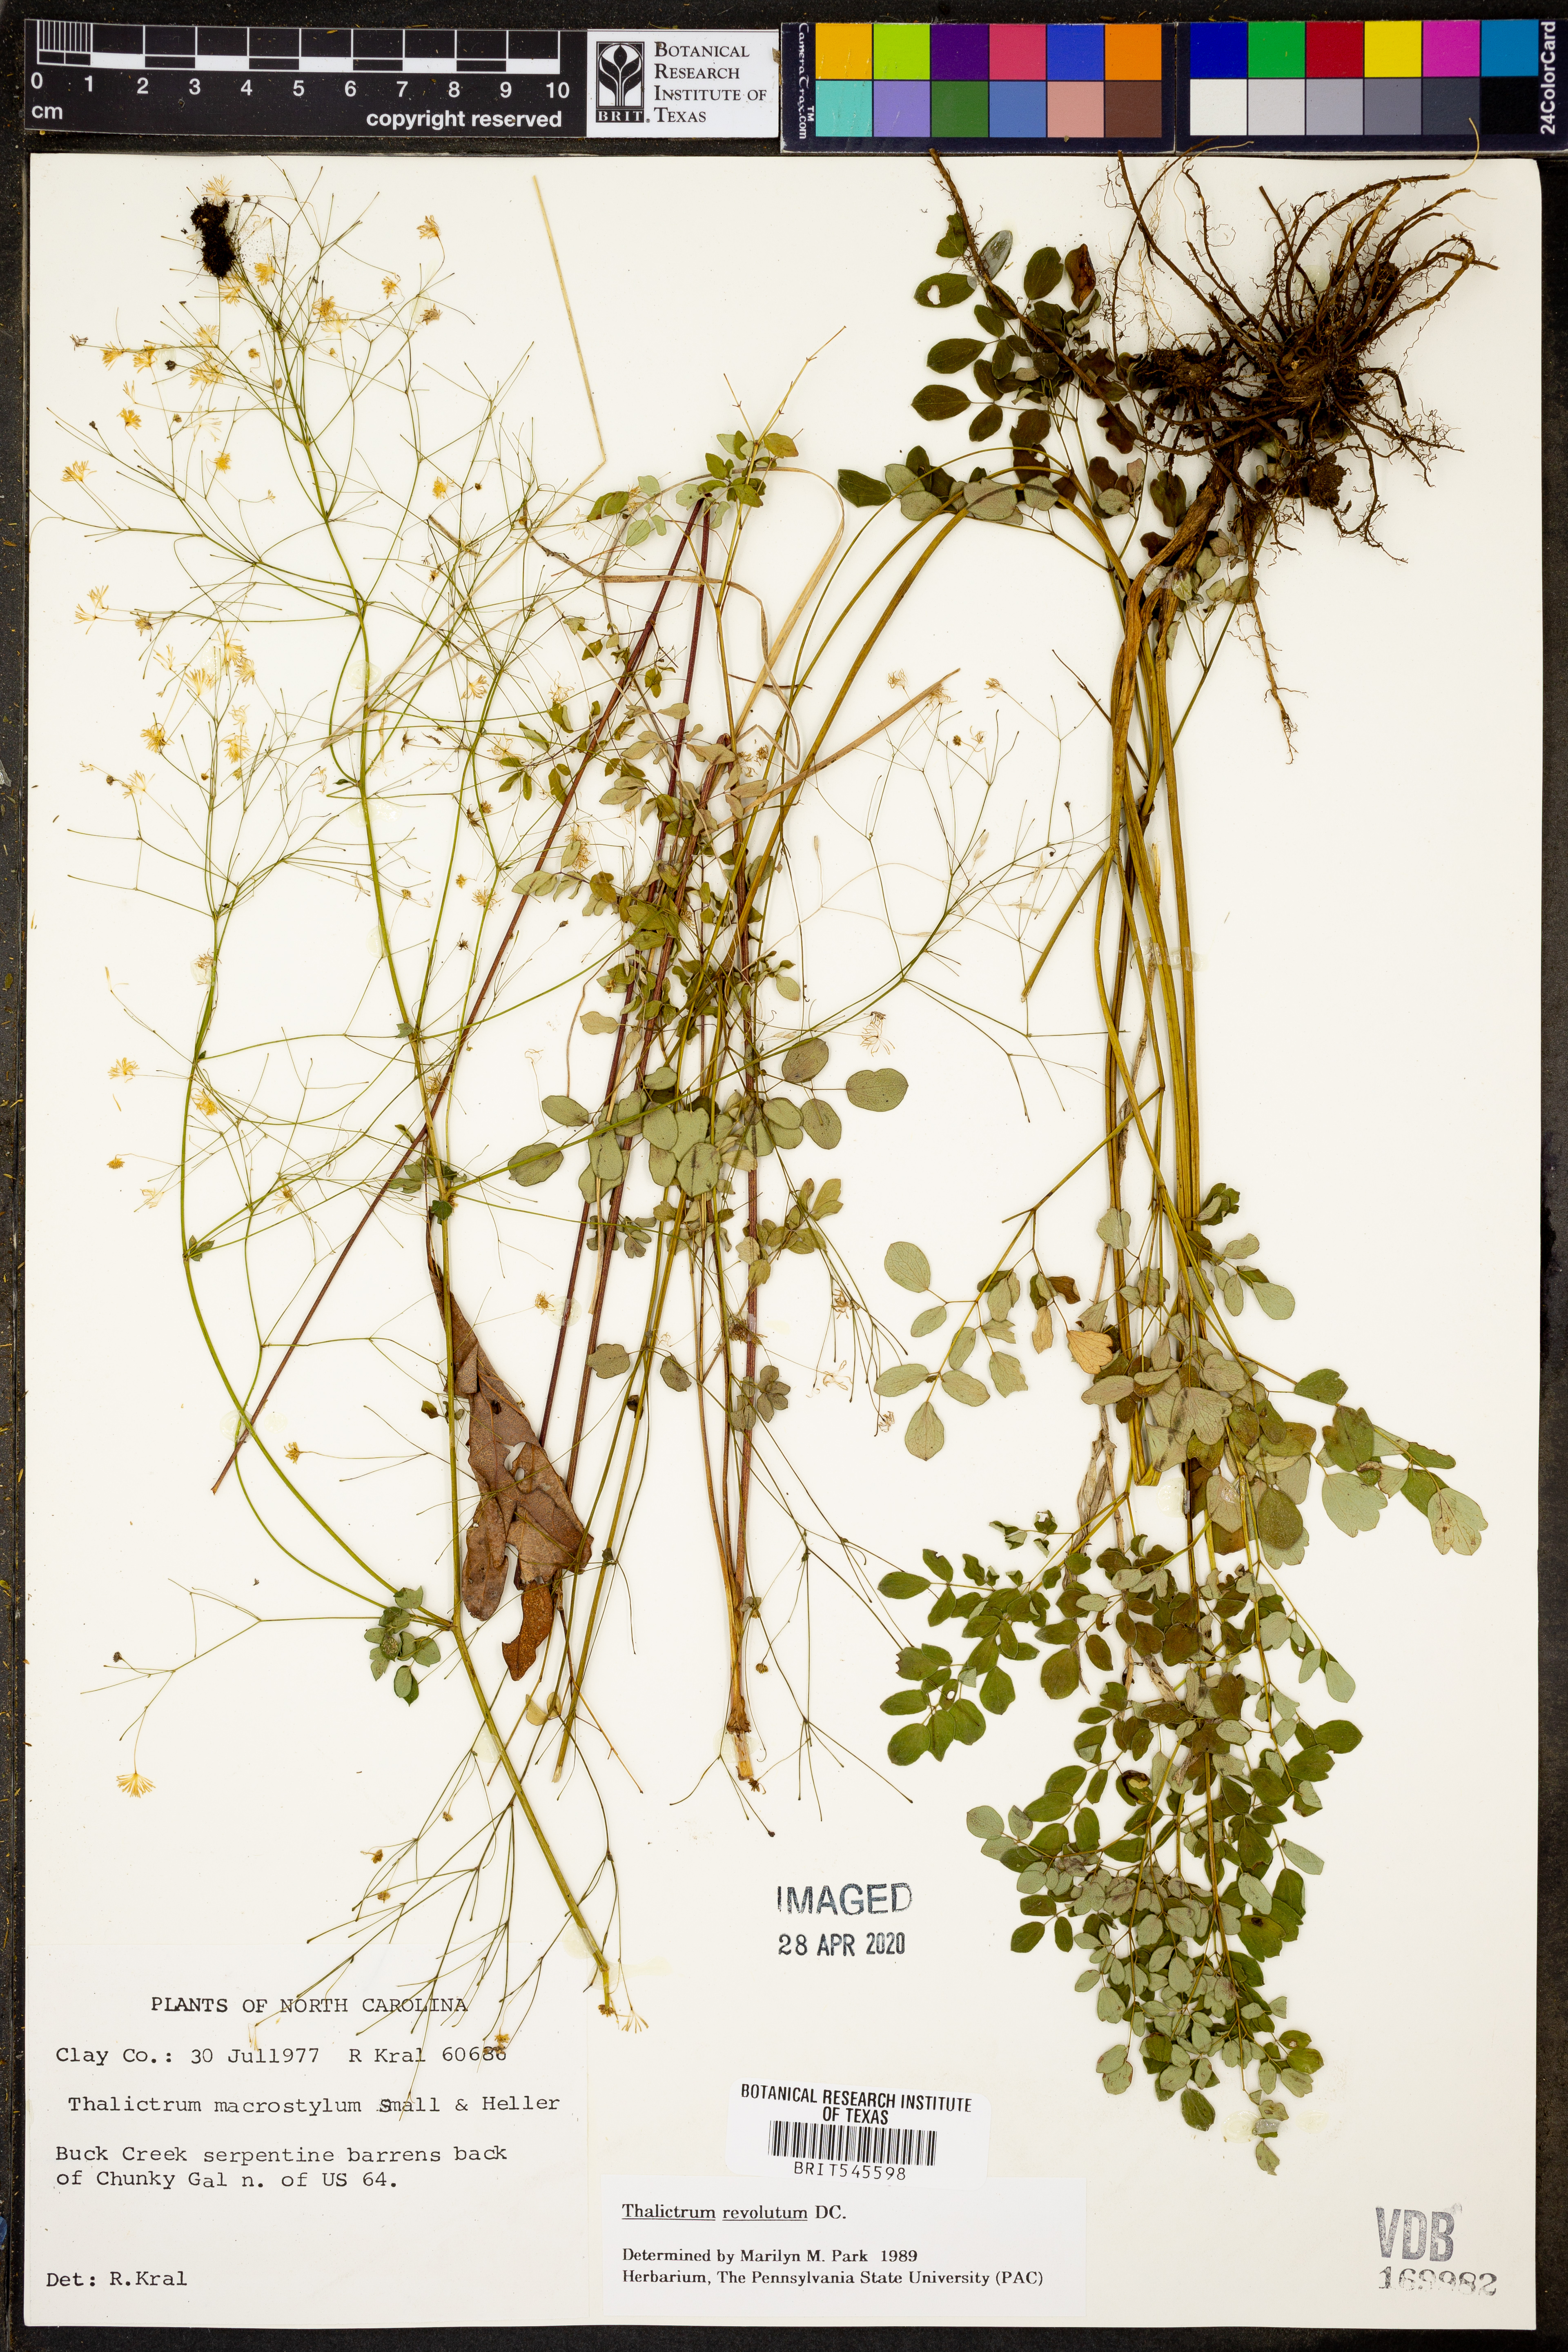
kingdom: Plantae
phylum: Tracheophyta
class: Magnoliopsida
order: Ranunculales
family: Ranunculaceae
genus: Thalictrum
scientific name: Thalictrum revolutum
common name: Waxy meadow-rue
